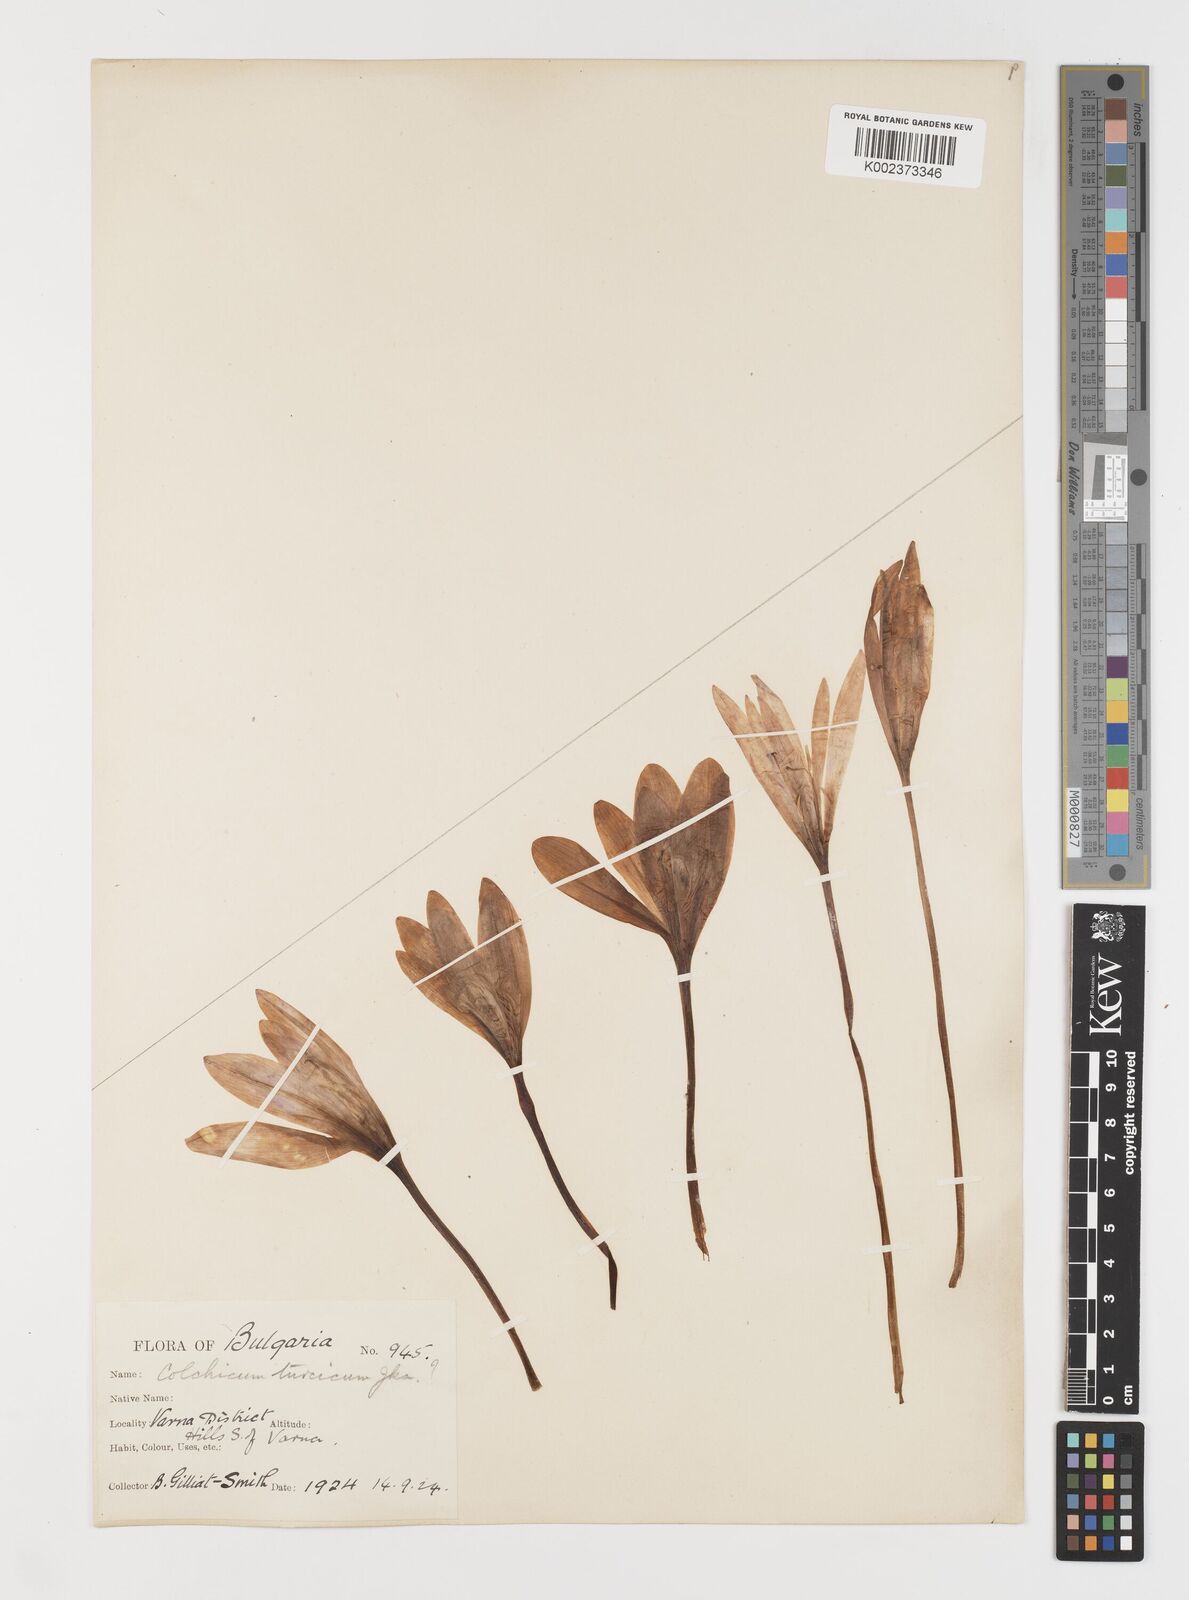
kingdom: Plantae
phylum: Tracheophyta
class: Liliopsida
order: Liliales
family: Colchicaceae
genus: Colchicum
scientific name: Colchicum turcicum
